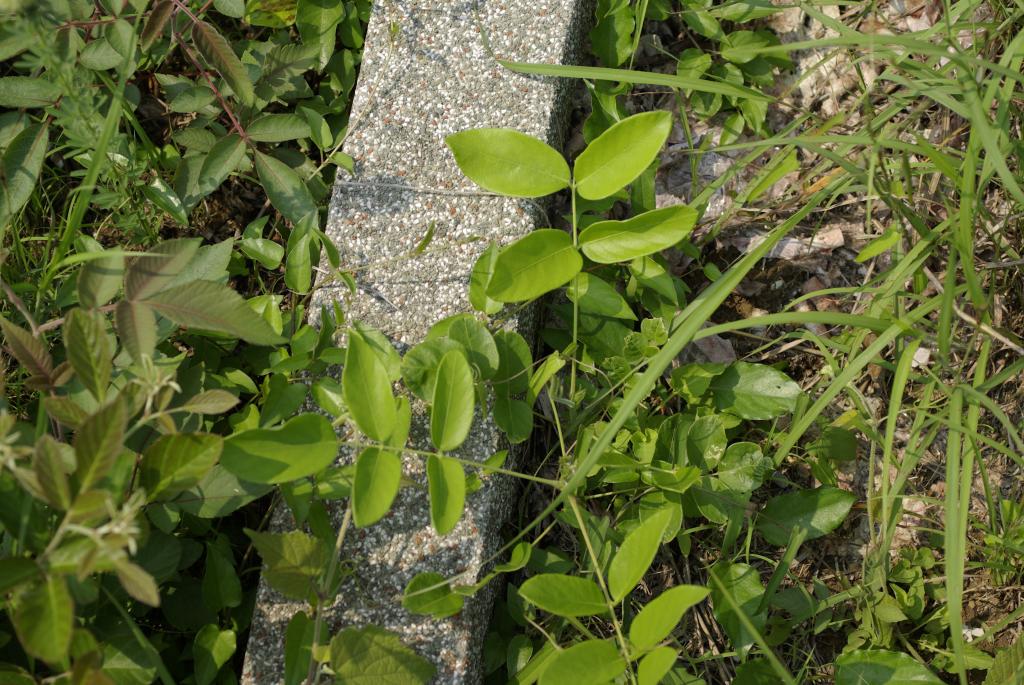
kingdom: Plantae
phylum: Tracheophyta
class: Magnoliopsida
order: Fabales
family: Fabaceae
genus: Uraria
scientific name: Uraria crinita
